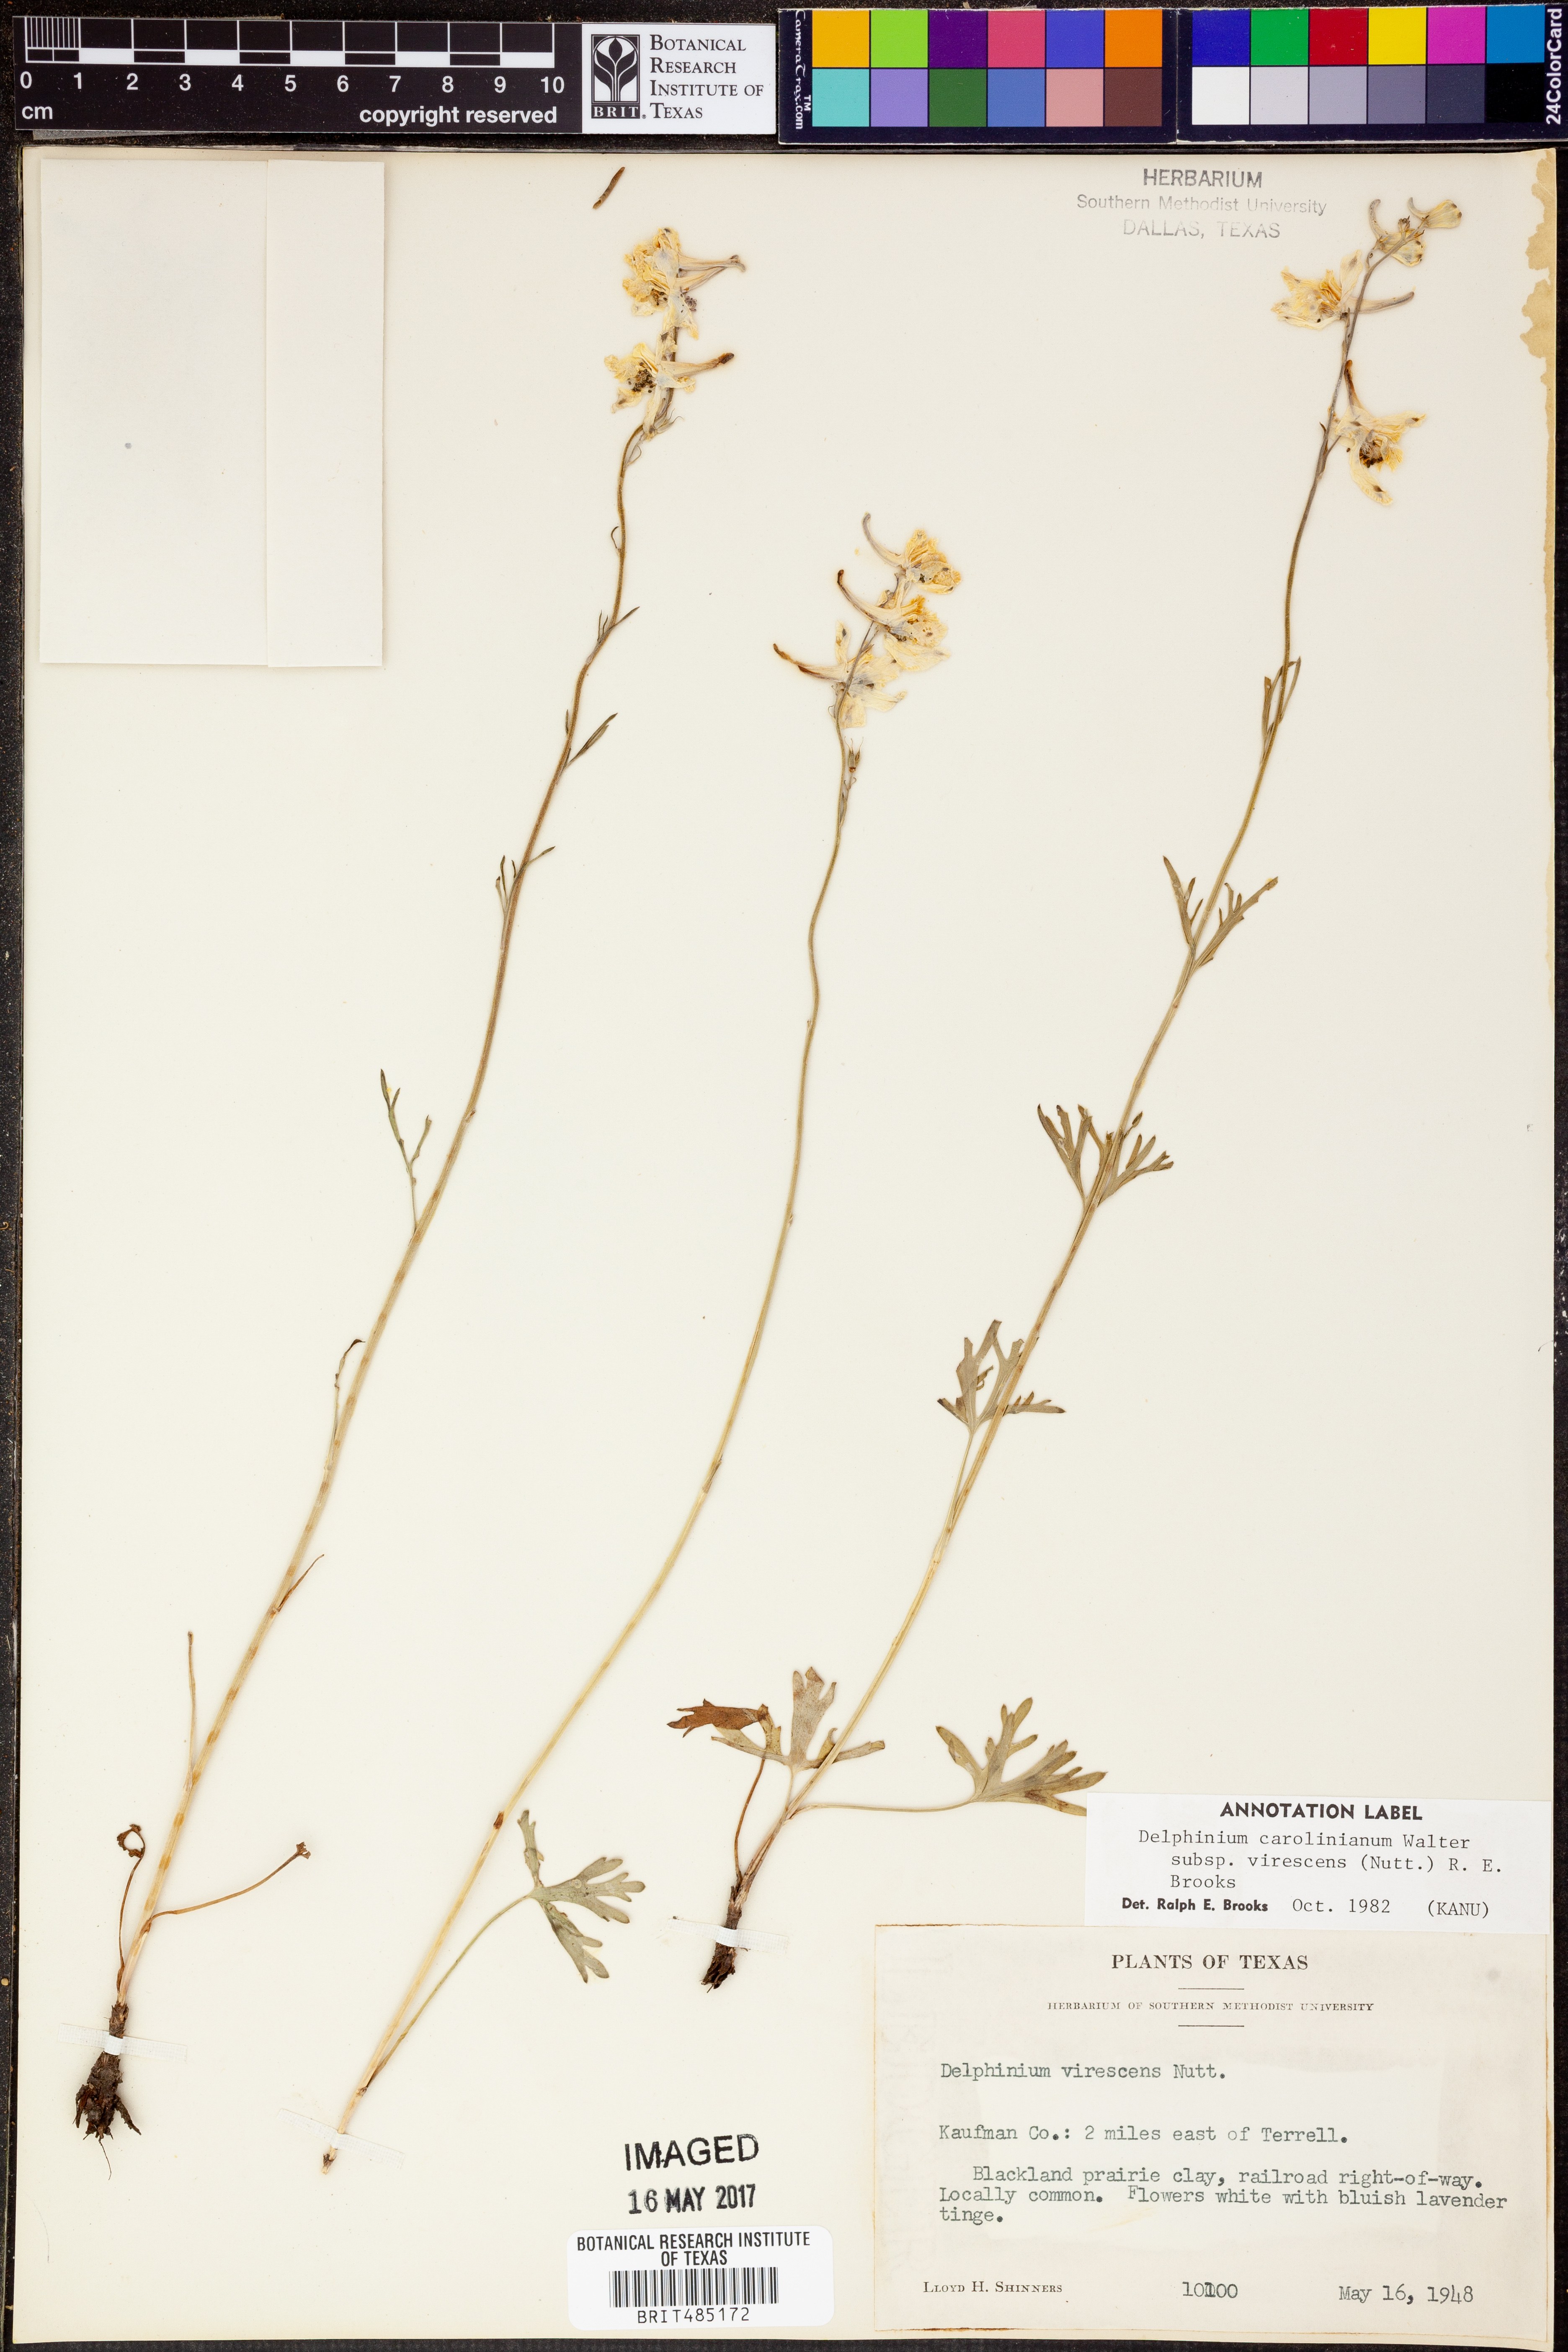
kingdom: Plantae
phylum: Tracheophyta
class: Magnoliopsida
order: Ranunculales
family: Ranunculaceae
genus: Delphinium
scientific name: Delphinium carolinianum
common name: Carolina larkspur
